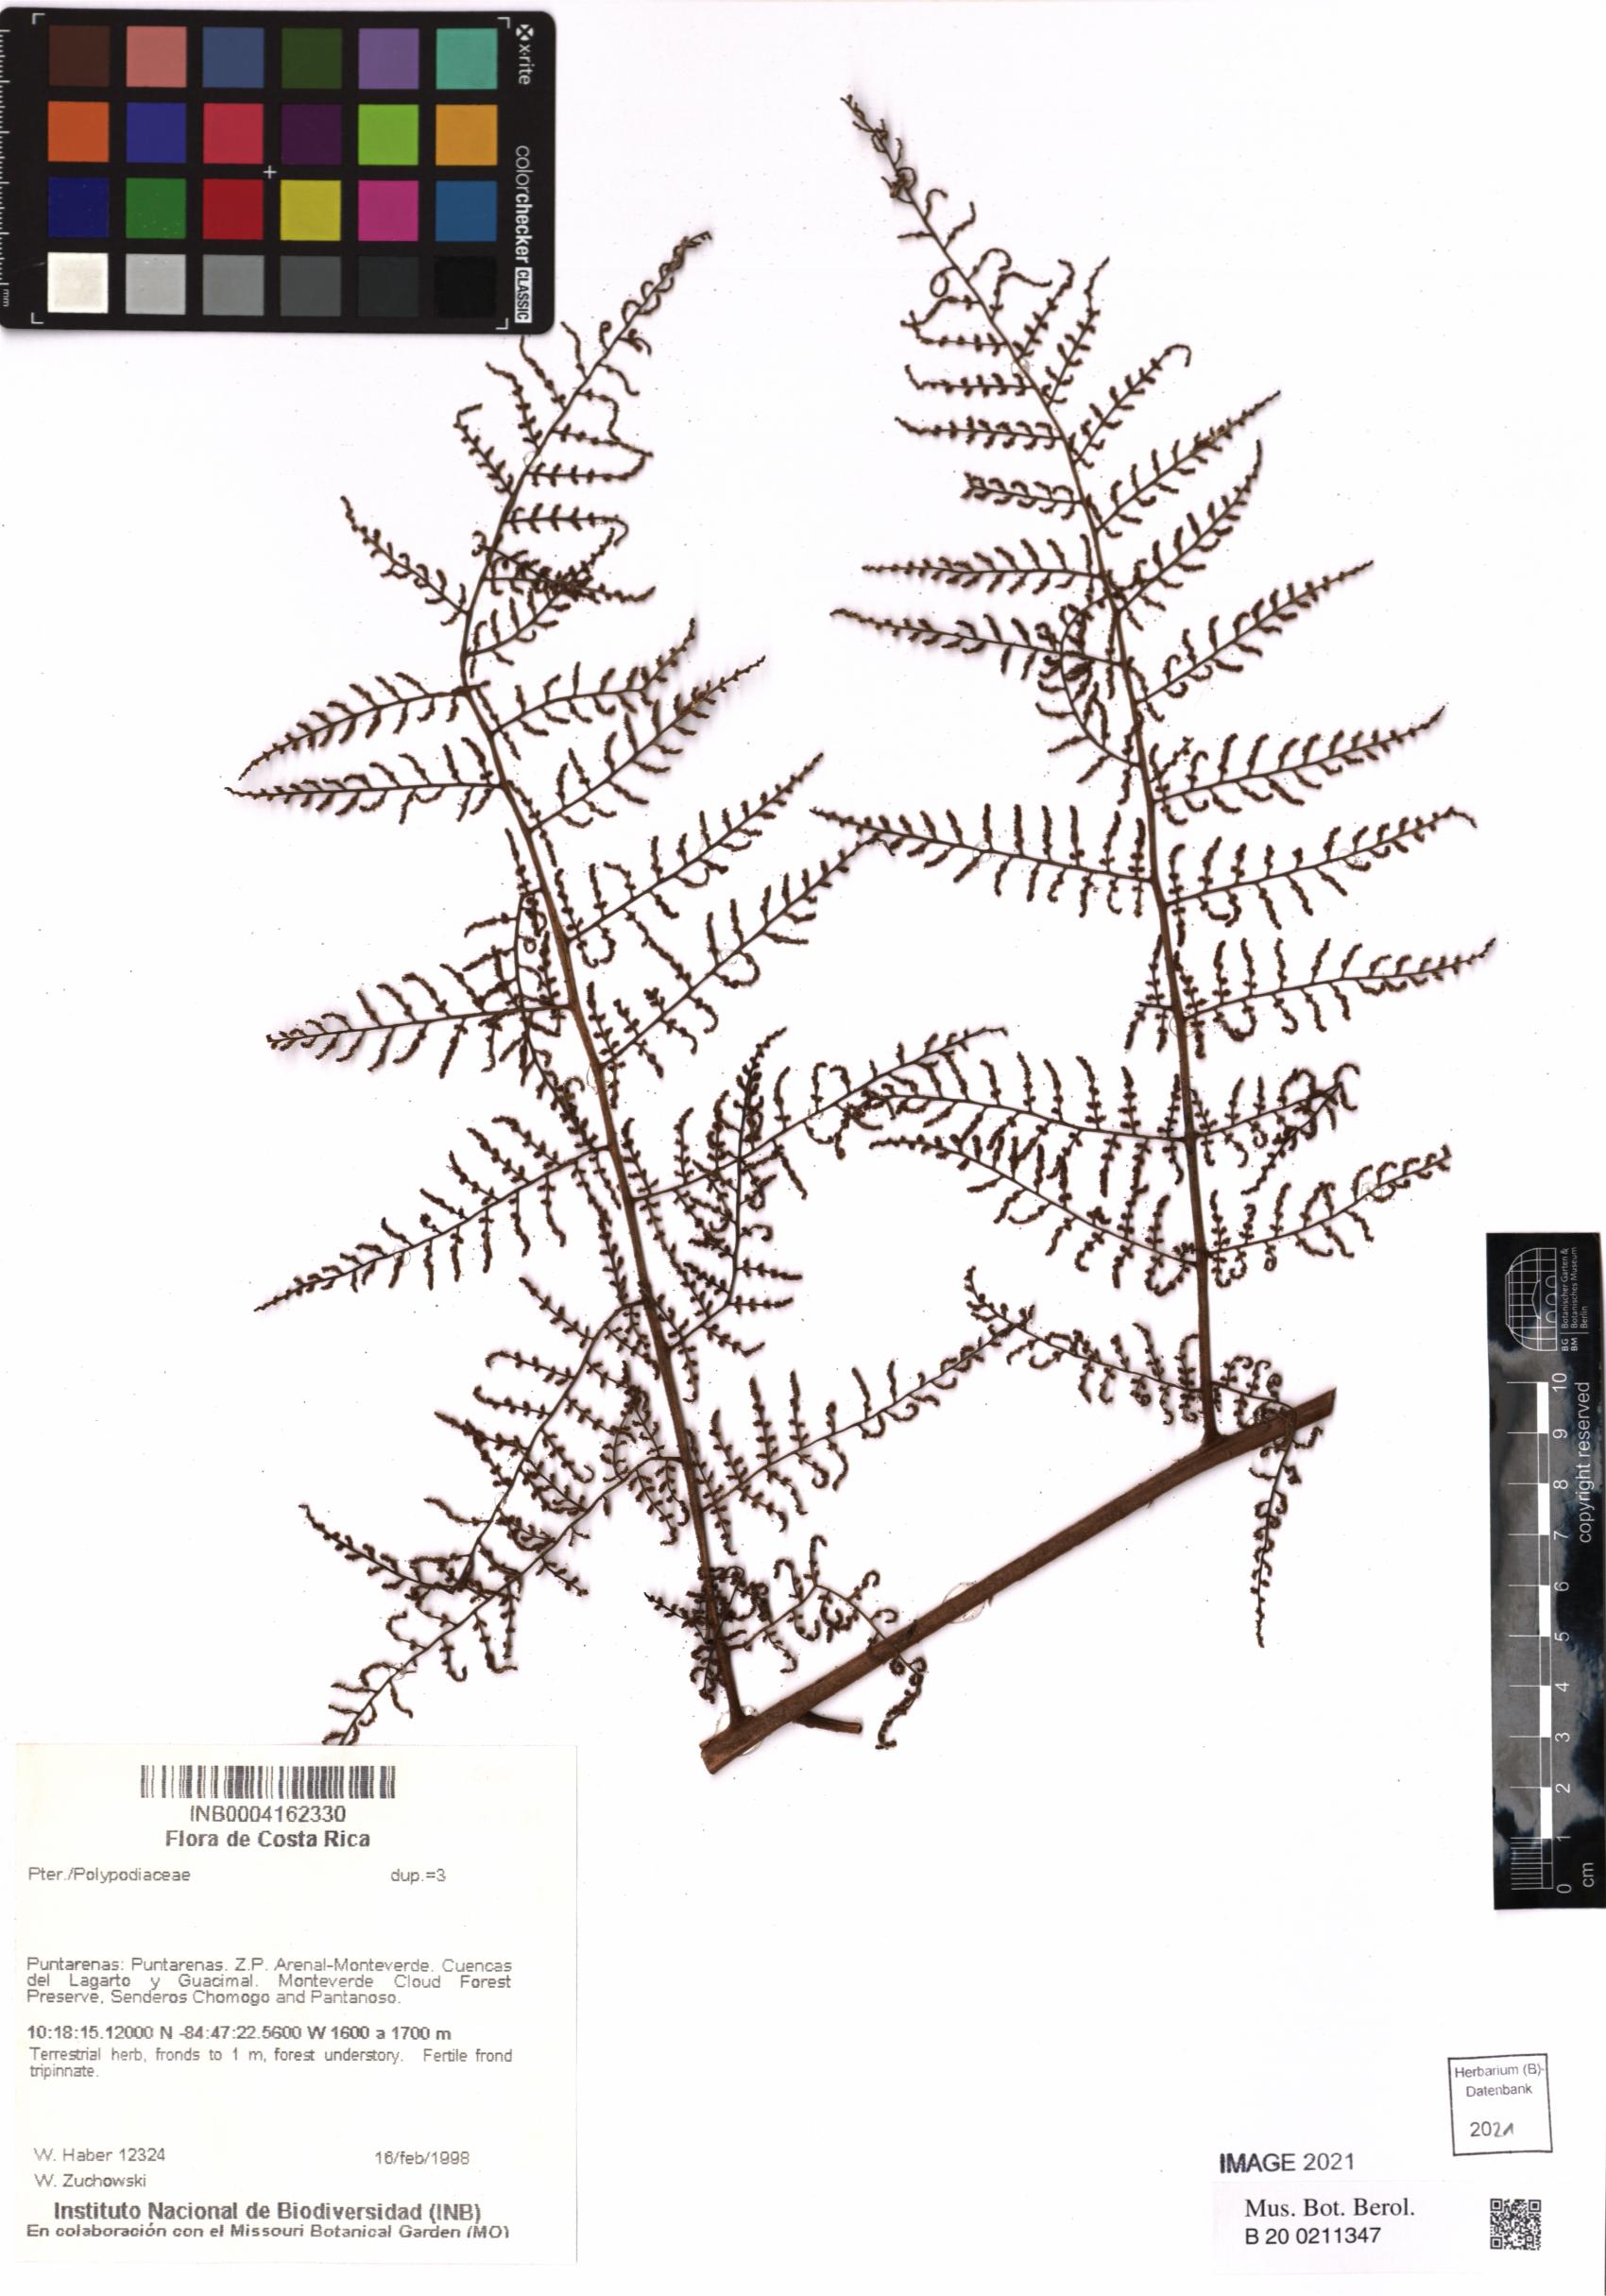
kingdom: Plantae
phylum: Tracheophyta
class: Polypodiopsida
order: Polypodiales
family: Polypodiaceae
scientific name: Polypodiaceae
